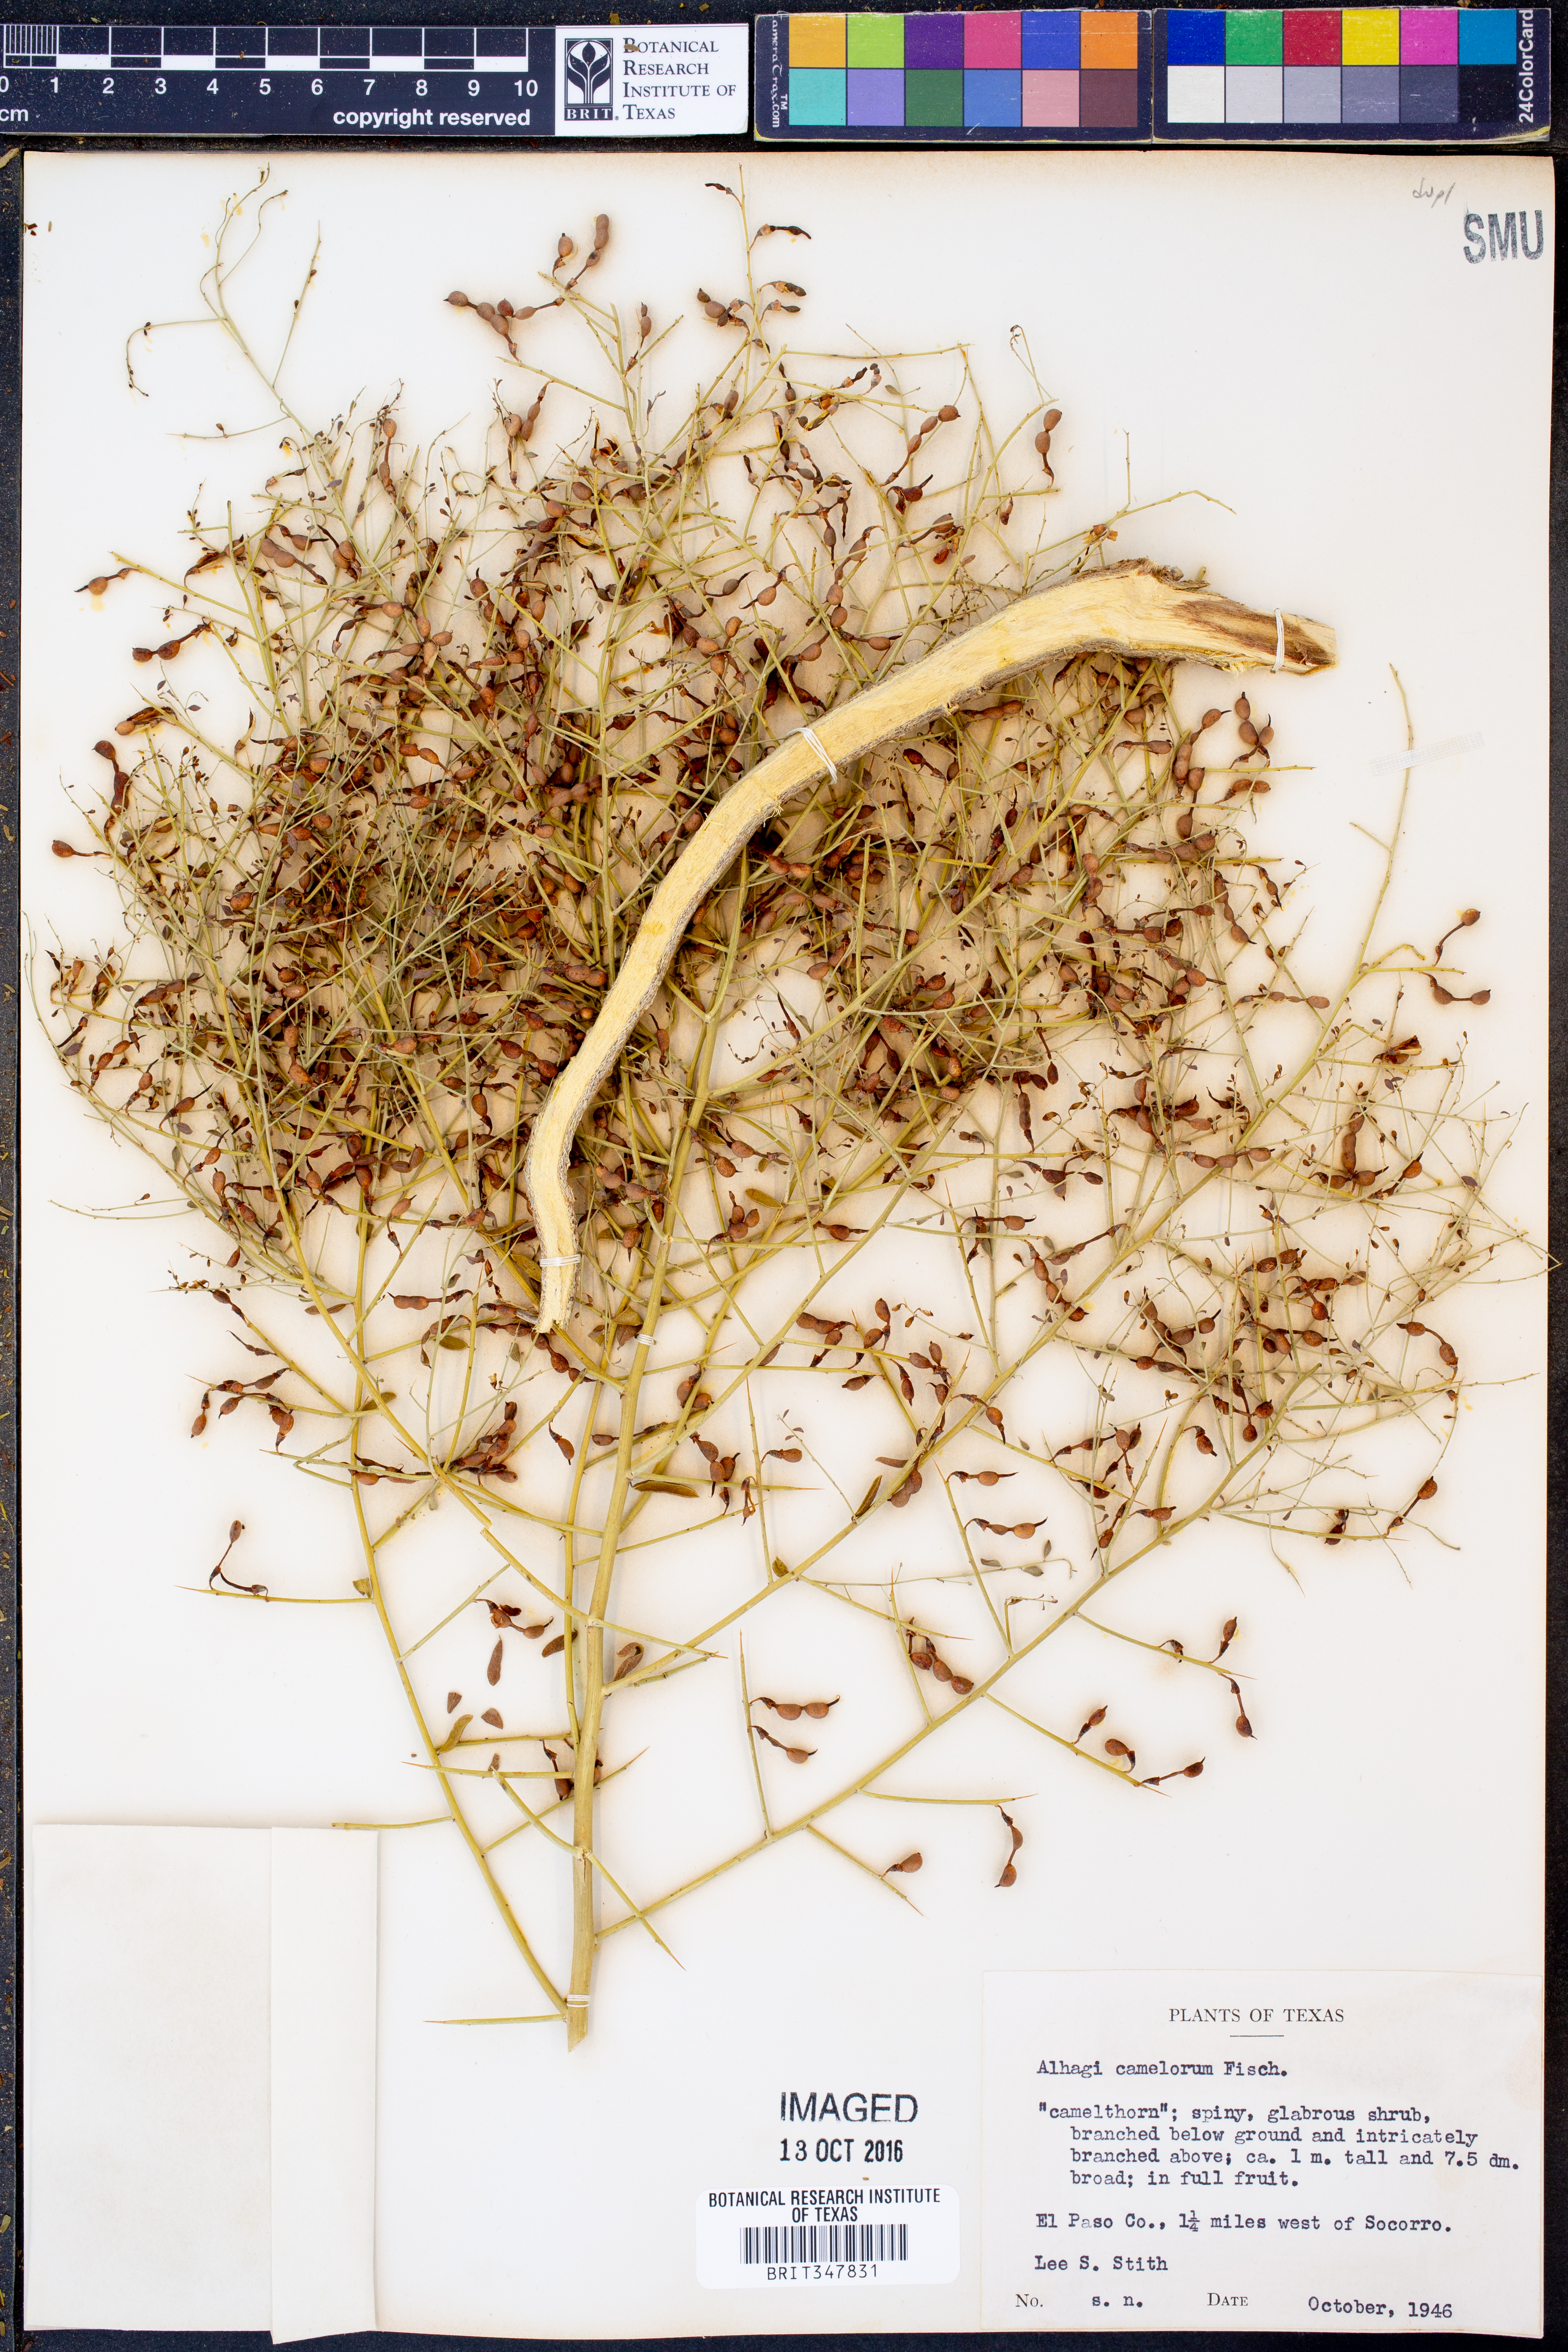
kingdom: Plantae
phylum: Tracheophyta
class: Magnoliopsida
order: Fabales
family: Fabaceae
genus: Alhagi
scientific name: Alhagi maurorum
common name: Camelthorn
